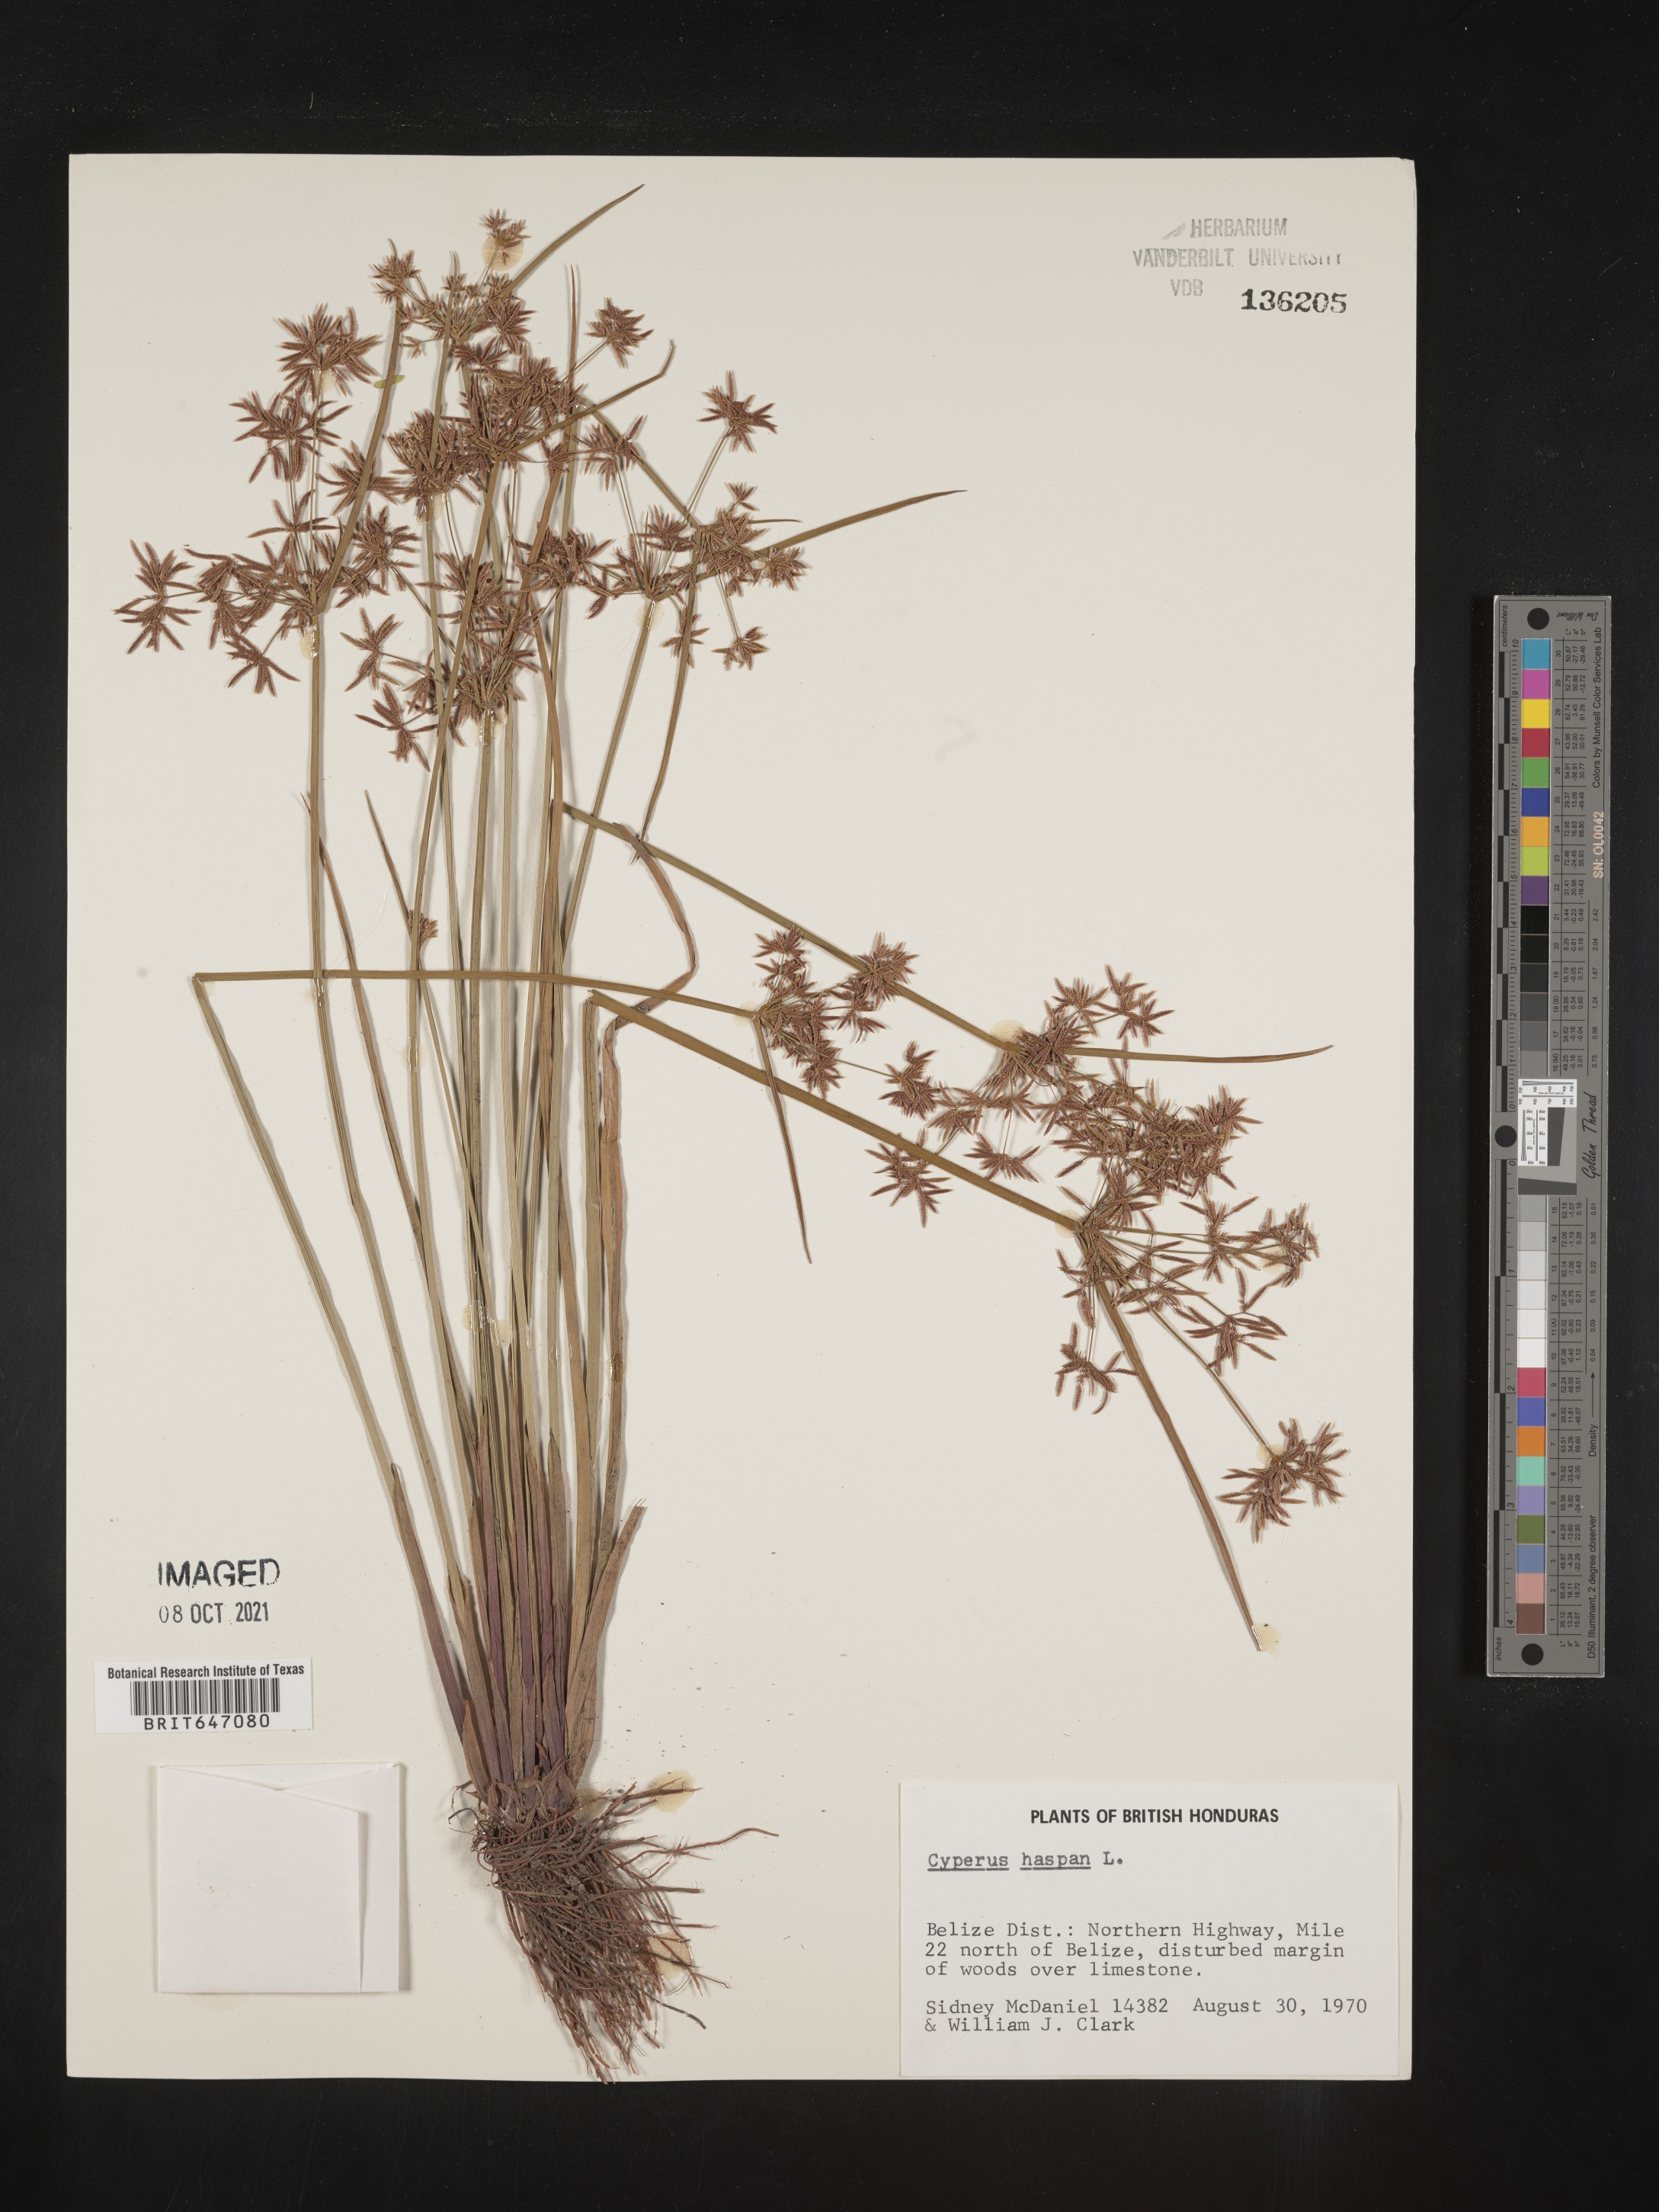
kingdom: Plantae
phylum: Tracheophyta
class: Liliopsida
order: Poales
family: Cyperaceae
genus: Cyperus
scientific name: Cyperus haspan
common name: Haspan flatsedge
